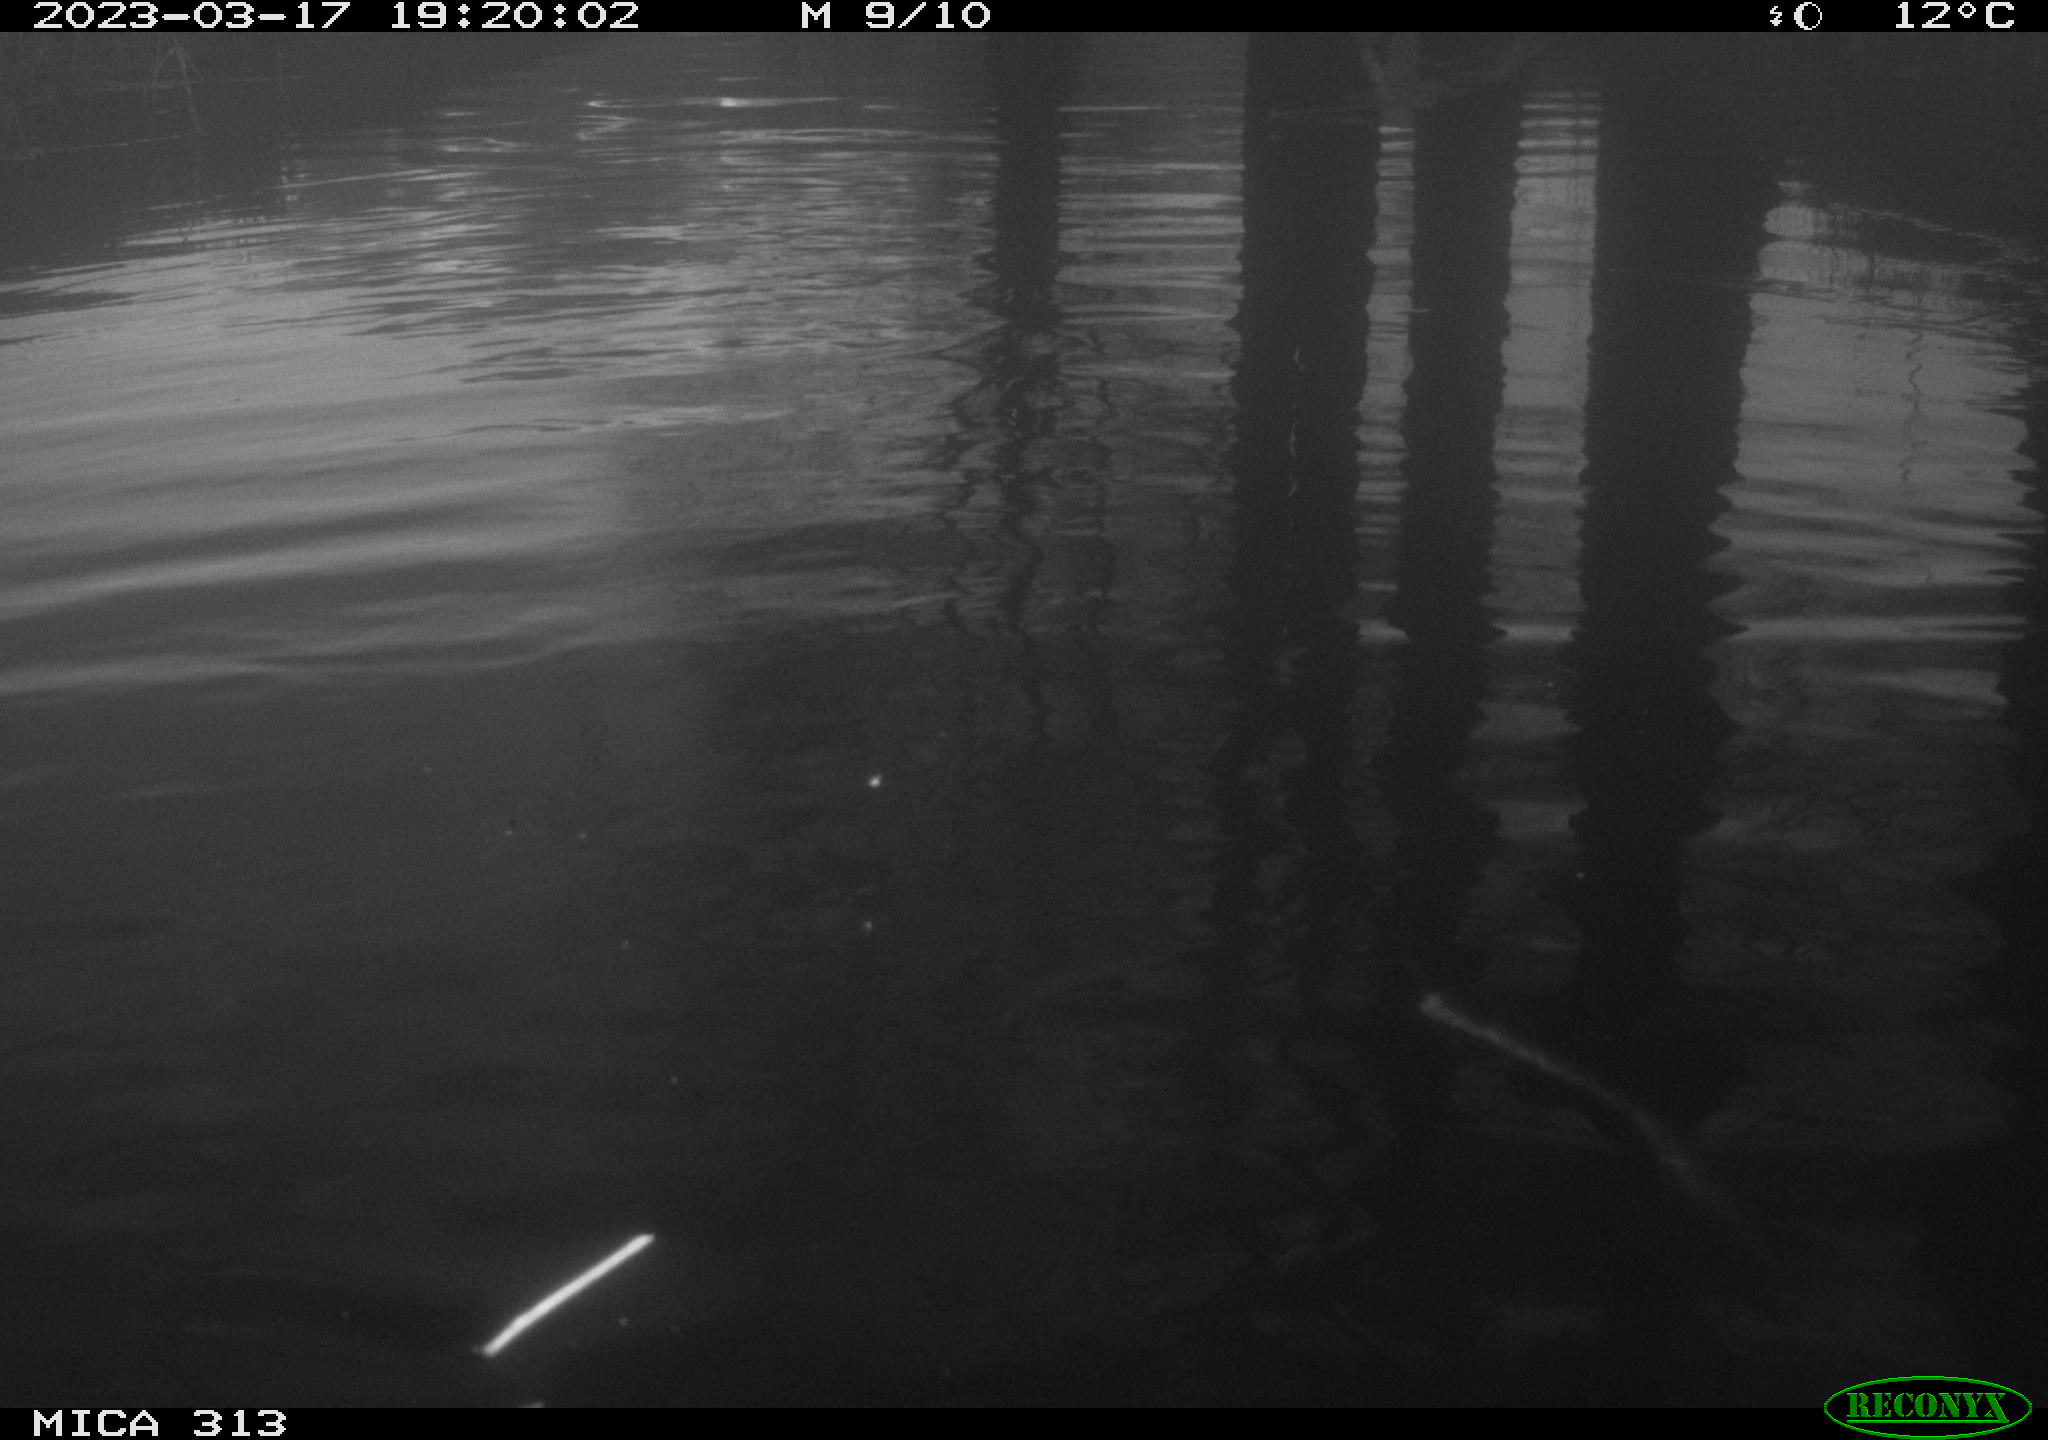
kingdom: Animalia
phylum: Chordata
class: Aves
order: Anseriformes
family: Anatidae
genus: Anas
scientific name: Anas
